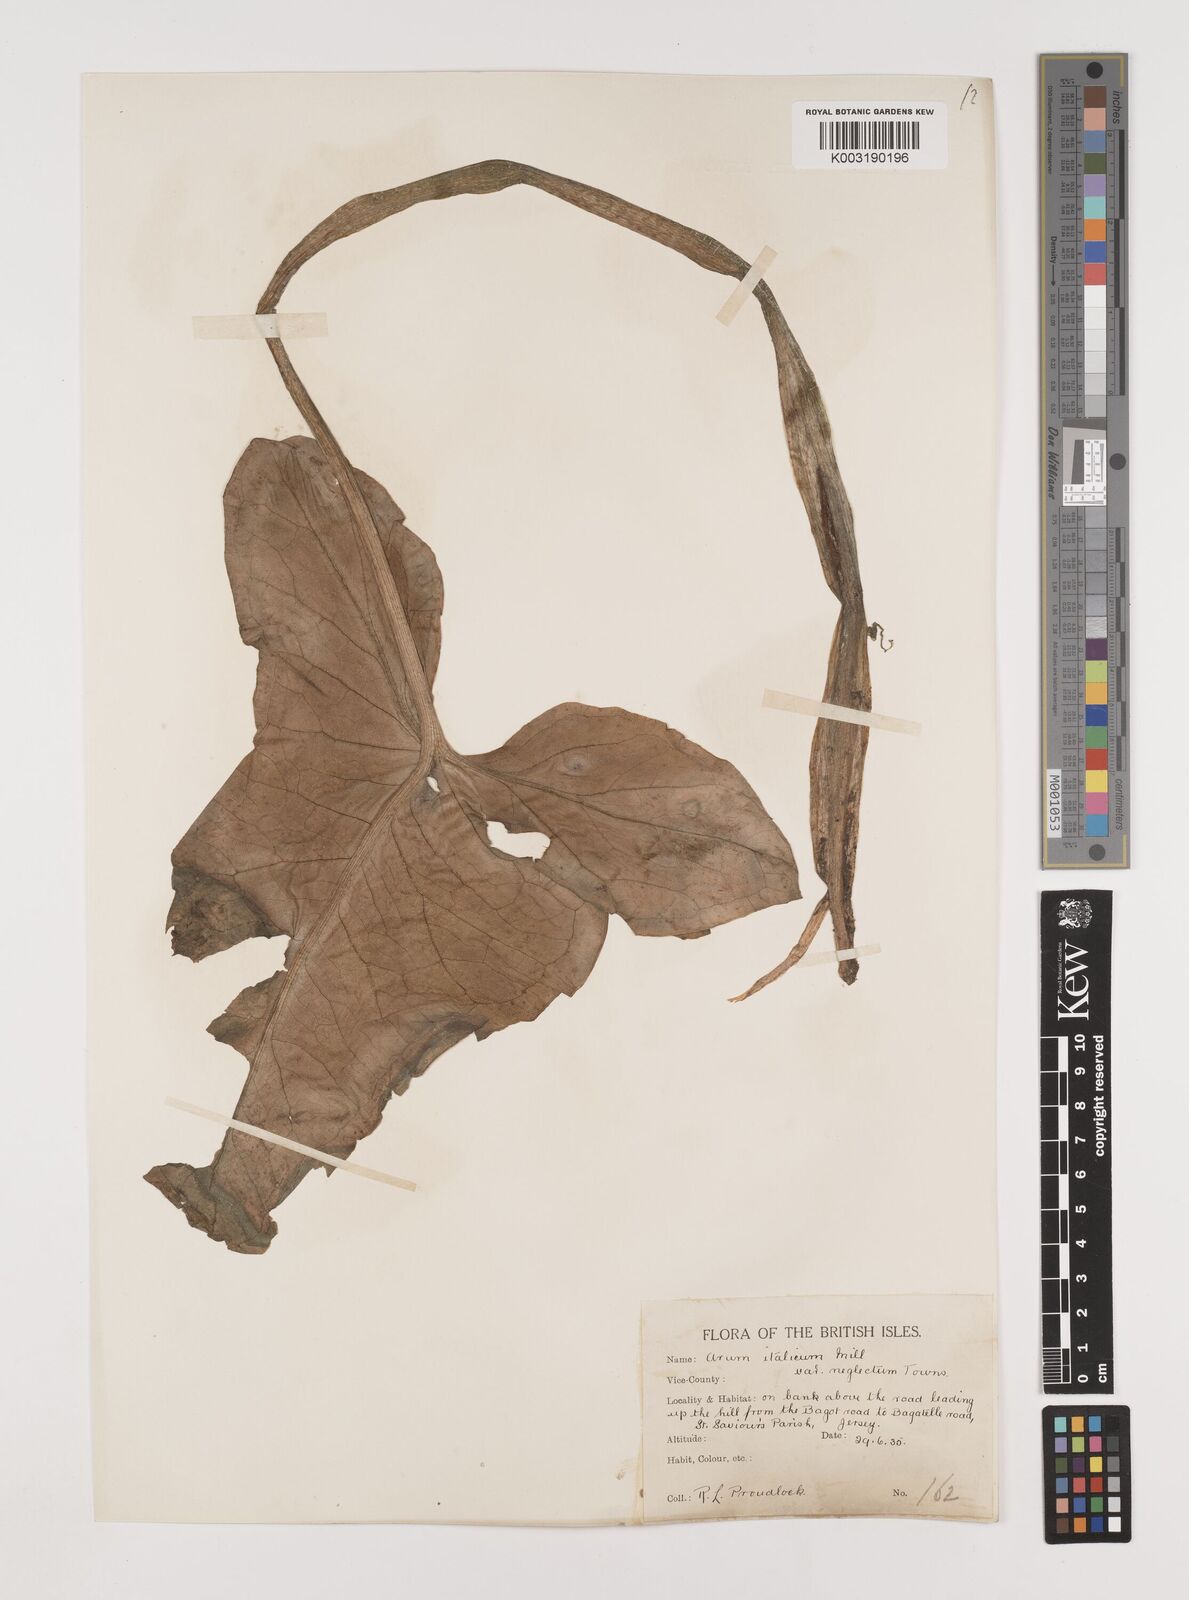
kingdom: Plantae
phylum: Tracheophyta
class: Liliopsida
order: Alismatales
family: Araceae
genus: Arum
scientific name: Arum italicum
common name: Italian lords-and-ladies
